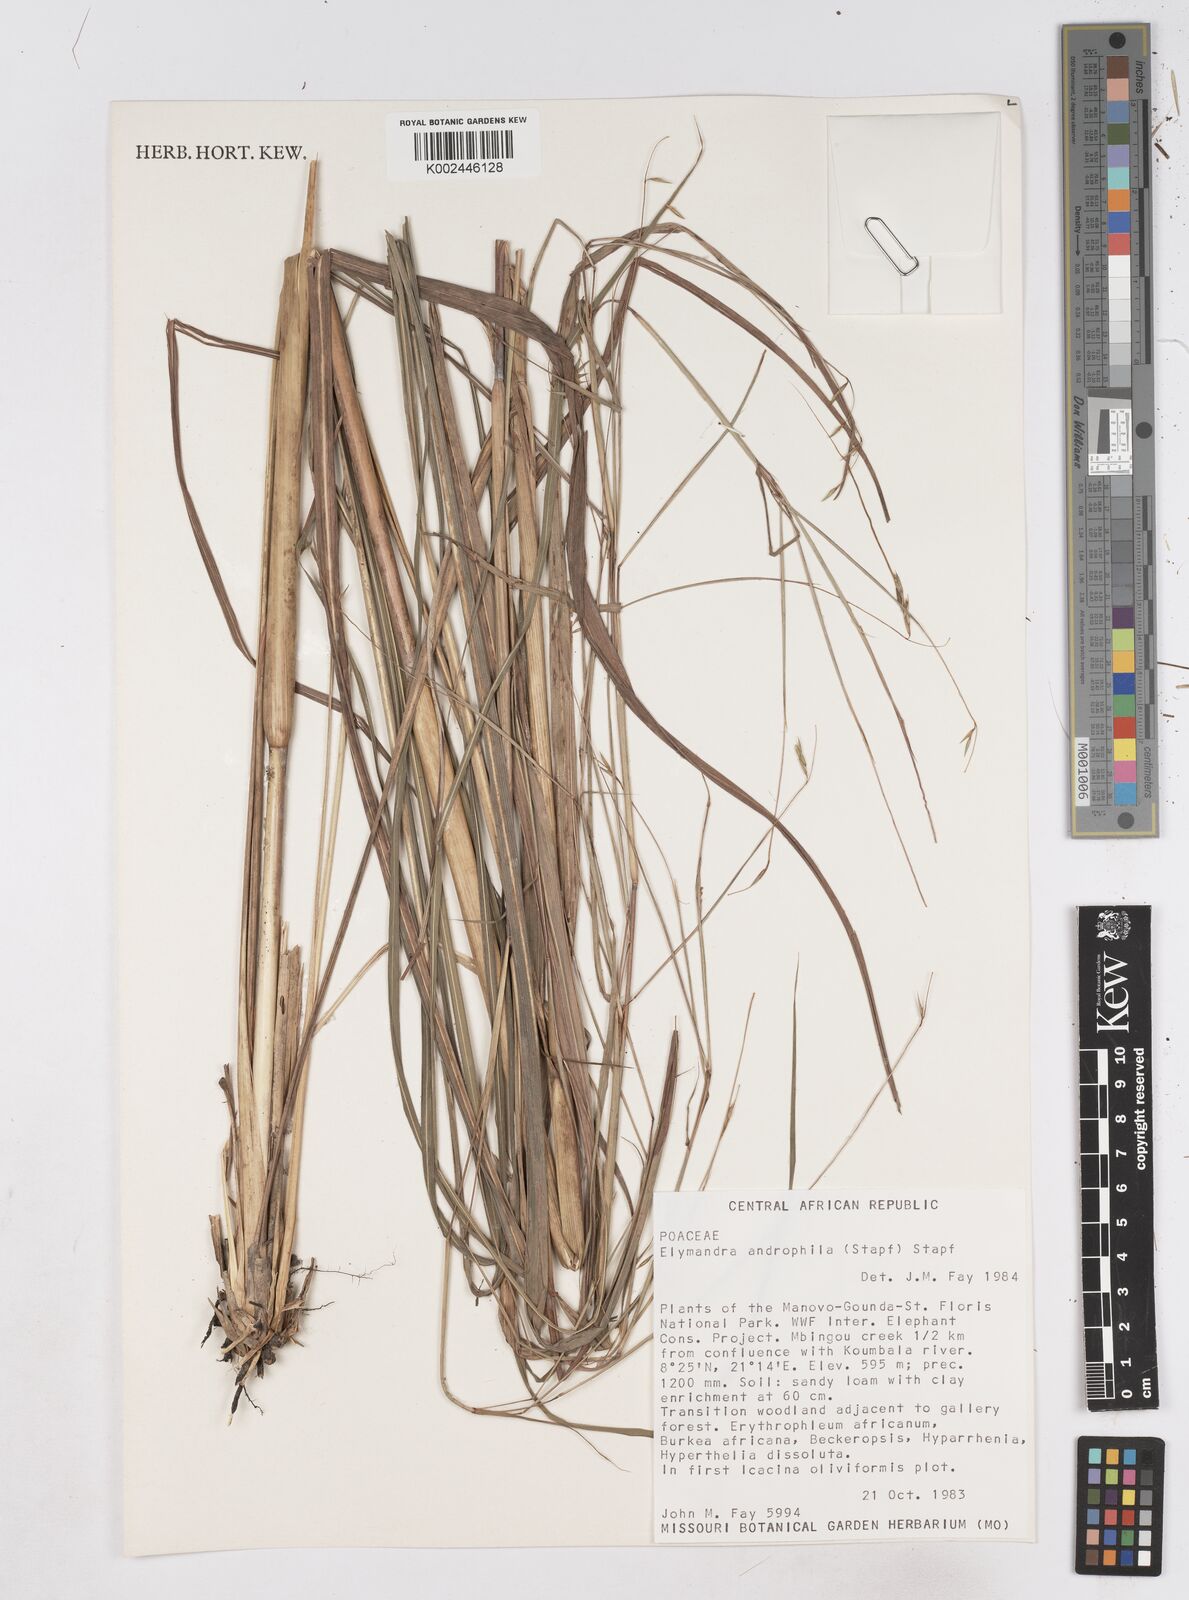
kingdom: Plantae
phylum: Tracheophyta
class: Liliopsida
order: Poales
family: Poaceae
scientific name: Poaceae
